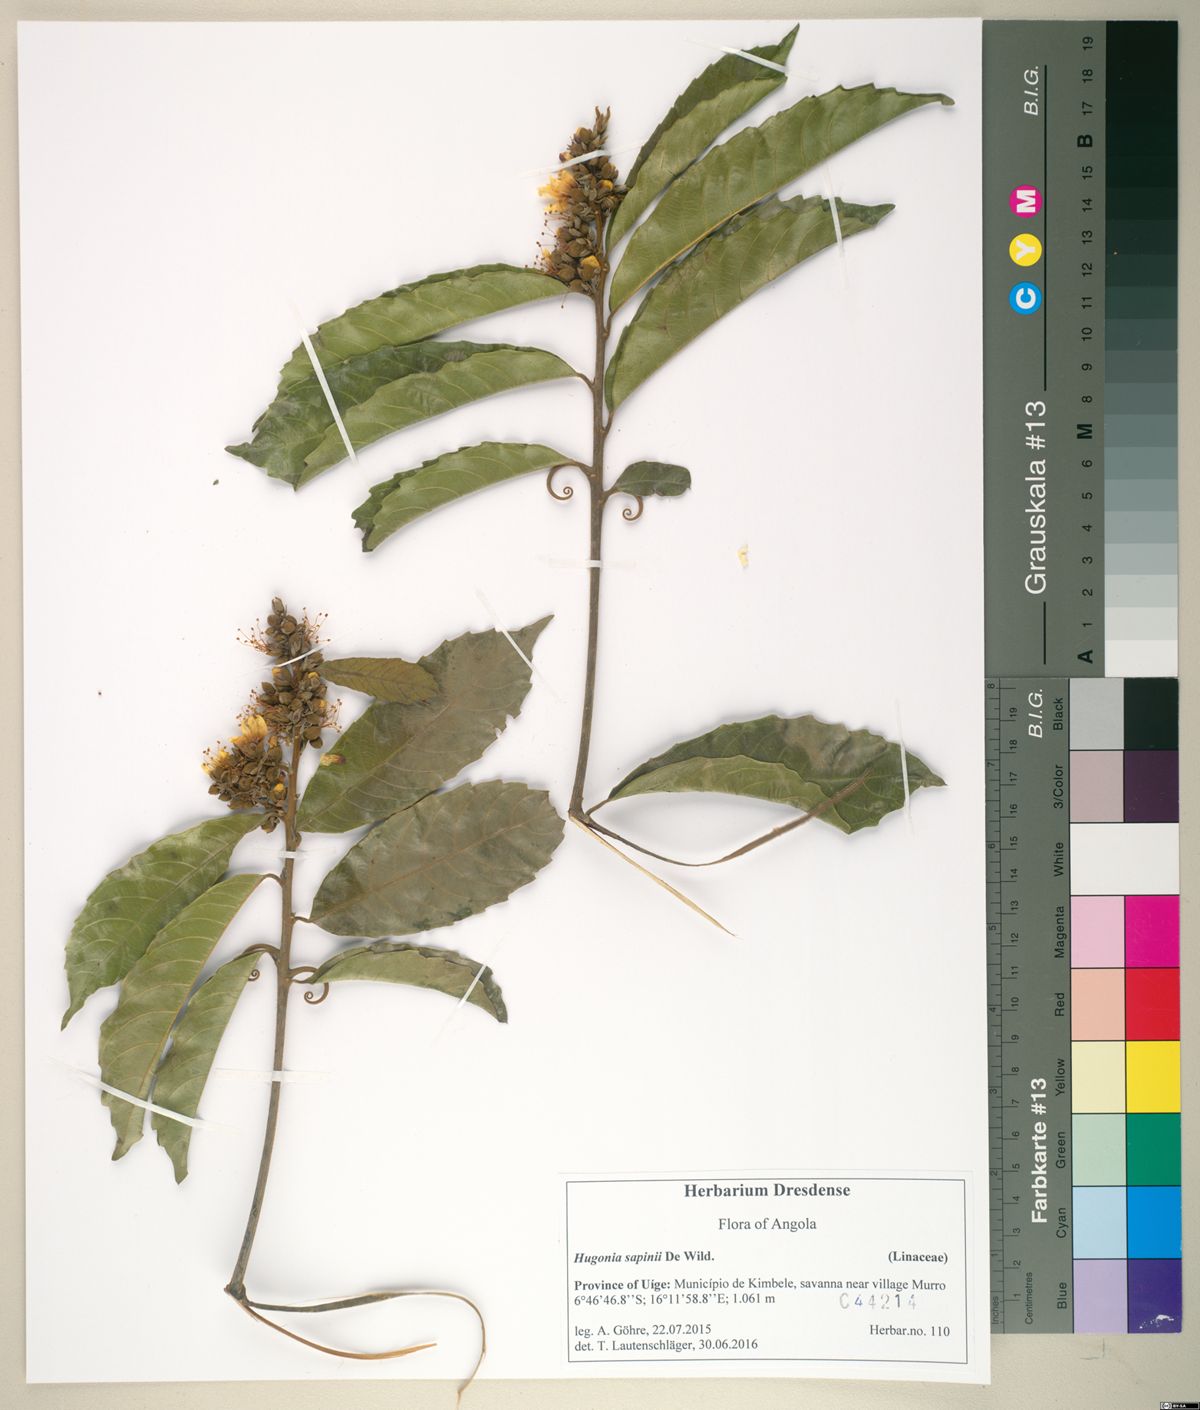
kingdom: Plantae
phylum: Tracheophyta
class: Magnoliopsida
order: Malpighiales
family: Linaceae
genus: Hugonia
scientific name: Hugonia sapinii
